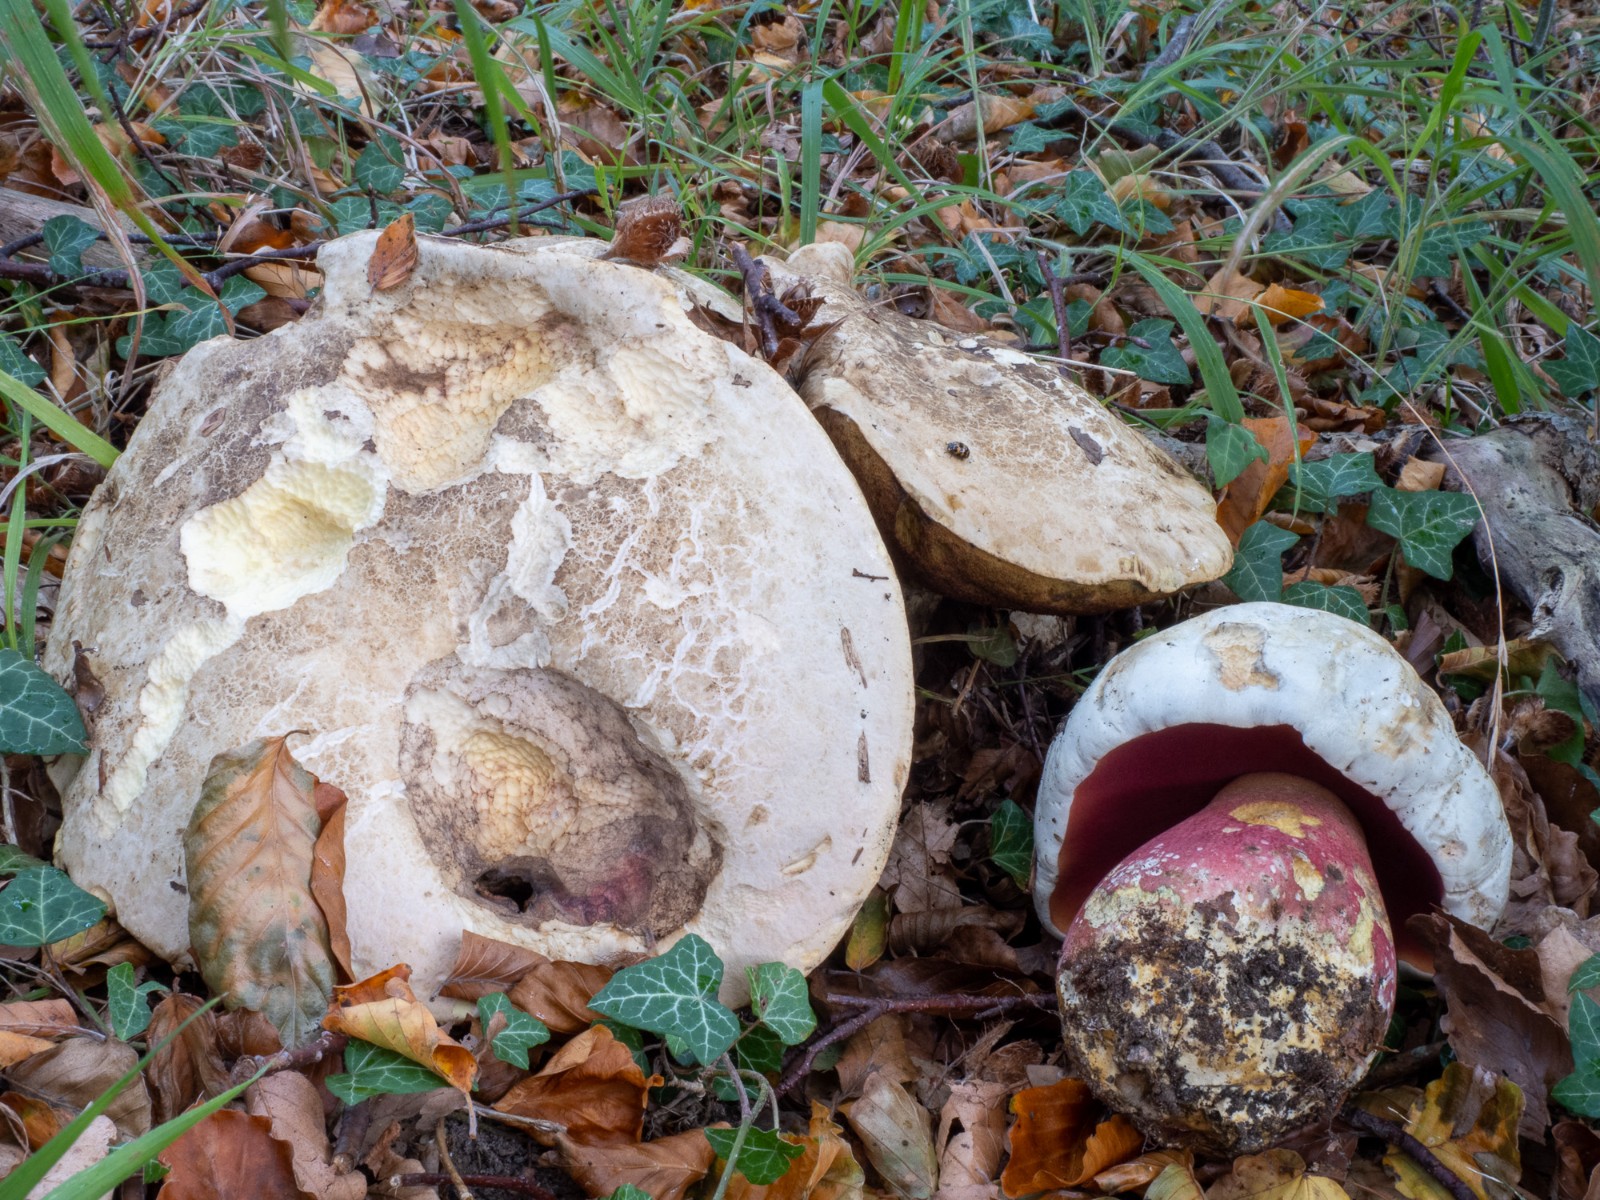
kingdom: Fungi
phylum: Basidiomycota
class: Agaricomycetes
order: Boletales
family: Boletaceae
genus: Rubroboletus
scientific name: Rubroboletus satanas
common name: Satans rørhat
